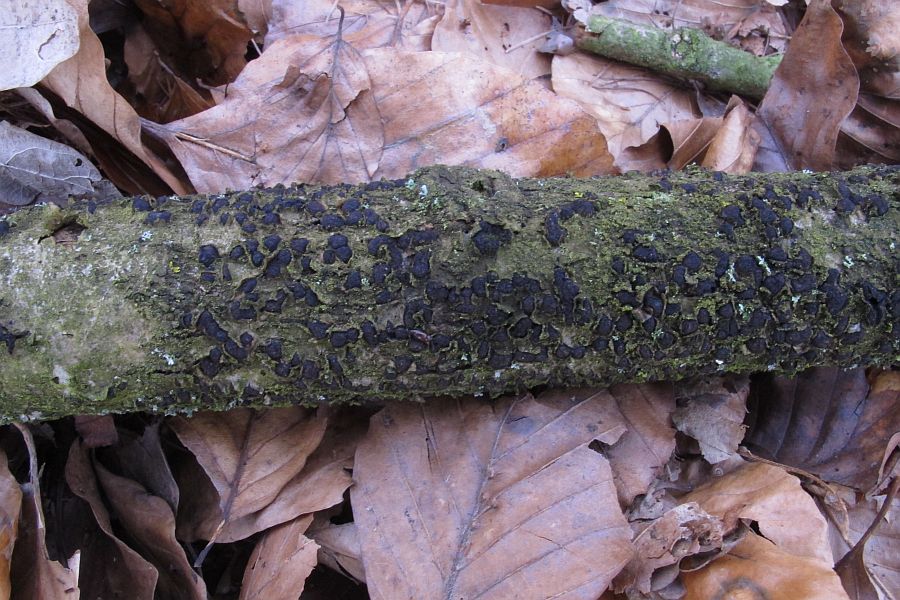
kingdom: Fungi
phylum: Ascomycota
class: Sordariomycetes
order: Xylariales
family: Melogrammataceae
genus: Melogramma
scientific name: Melogramma spiniferum
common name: bøgefod-kulhals
